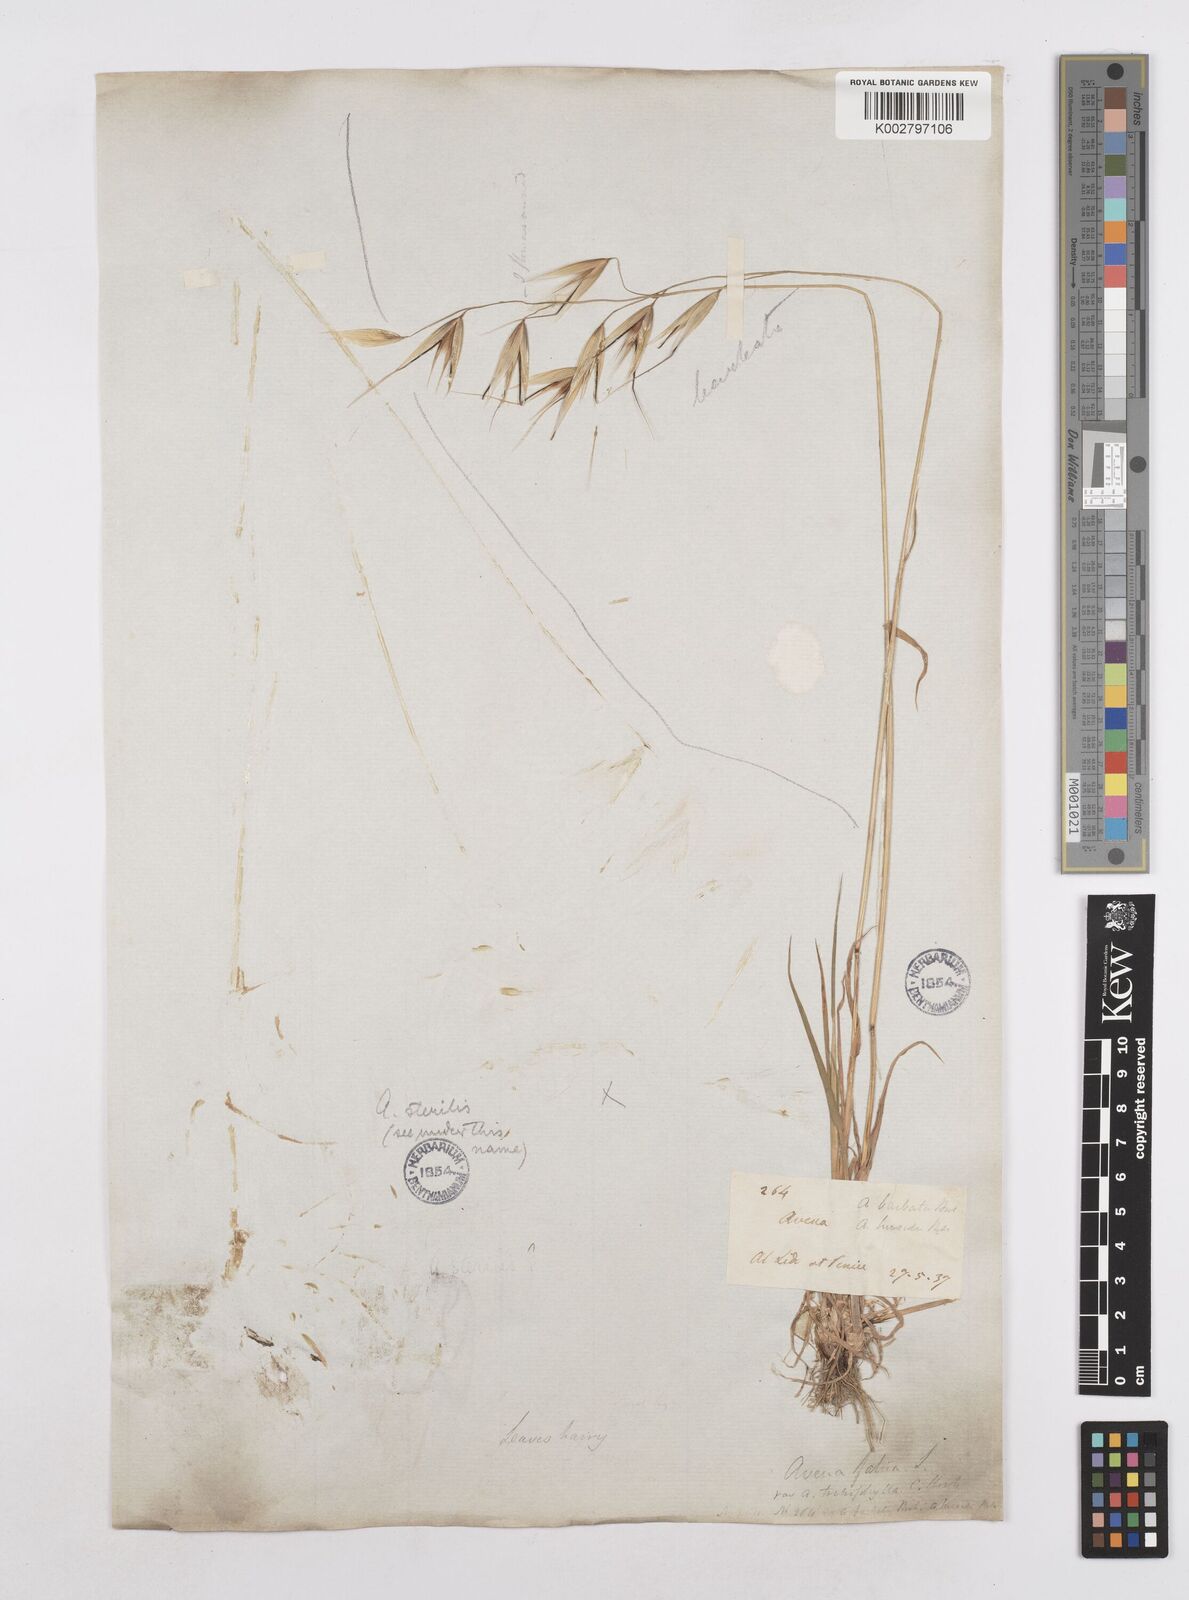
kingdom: Plantae
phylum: Tracheophyta
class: Liliopsida
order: Poales
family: Poaceae
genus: Avena
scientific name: Avena
